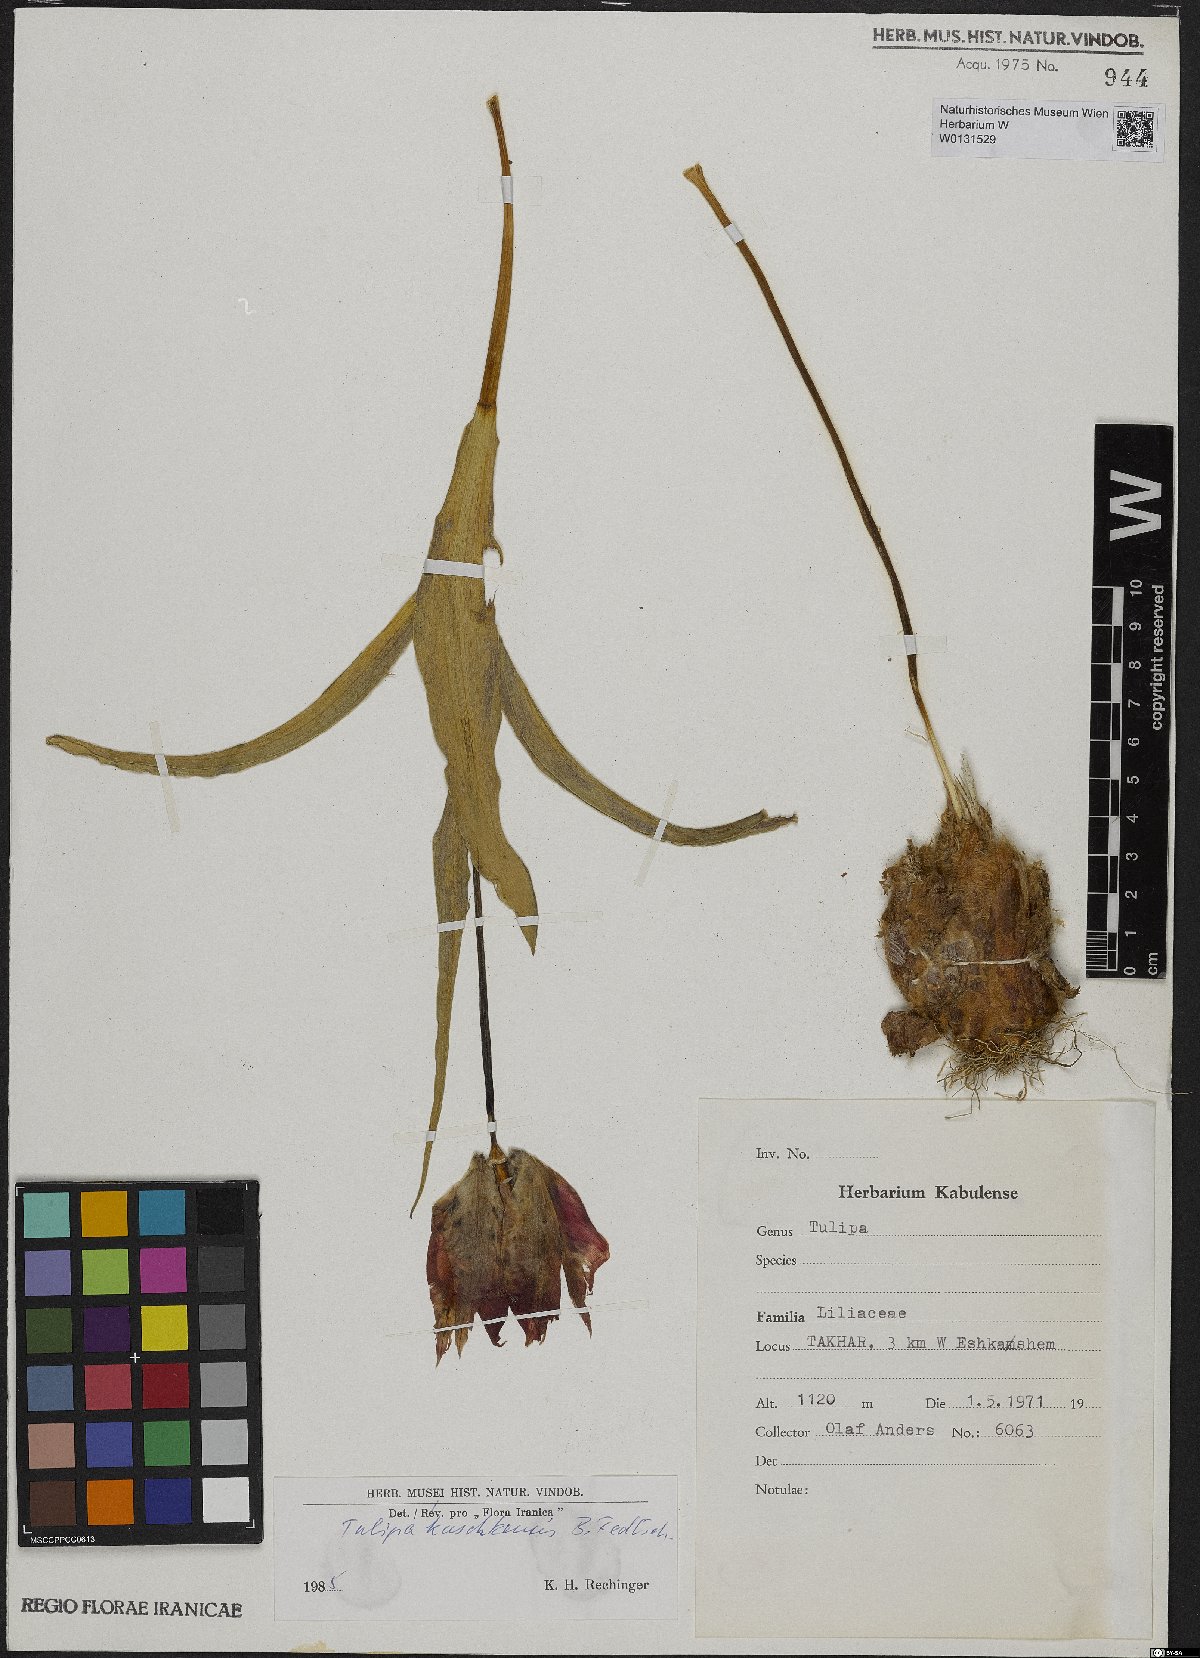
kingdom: Plantae
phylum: Tracheophyta
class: Liliopsida
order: Liliales
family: Liliaceae
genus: Tulipa
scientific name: Tulipa kuschkensis
